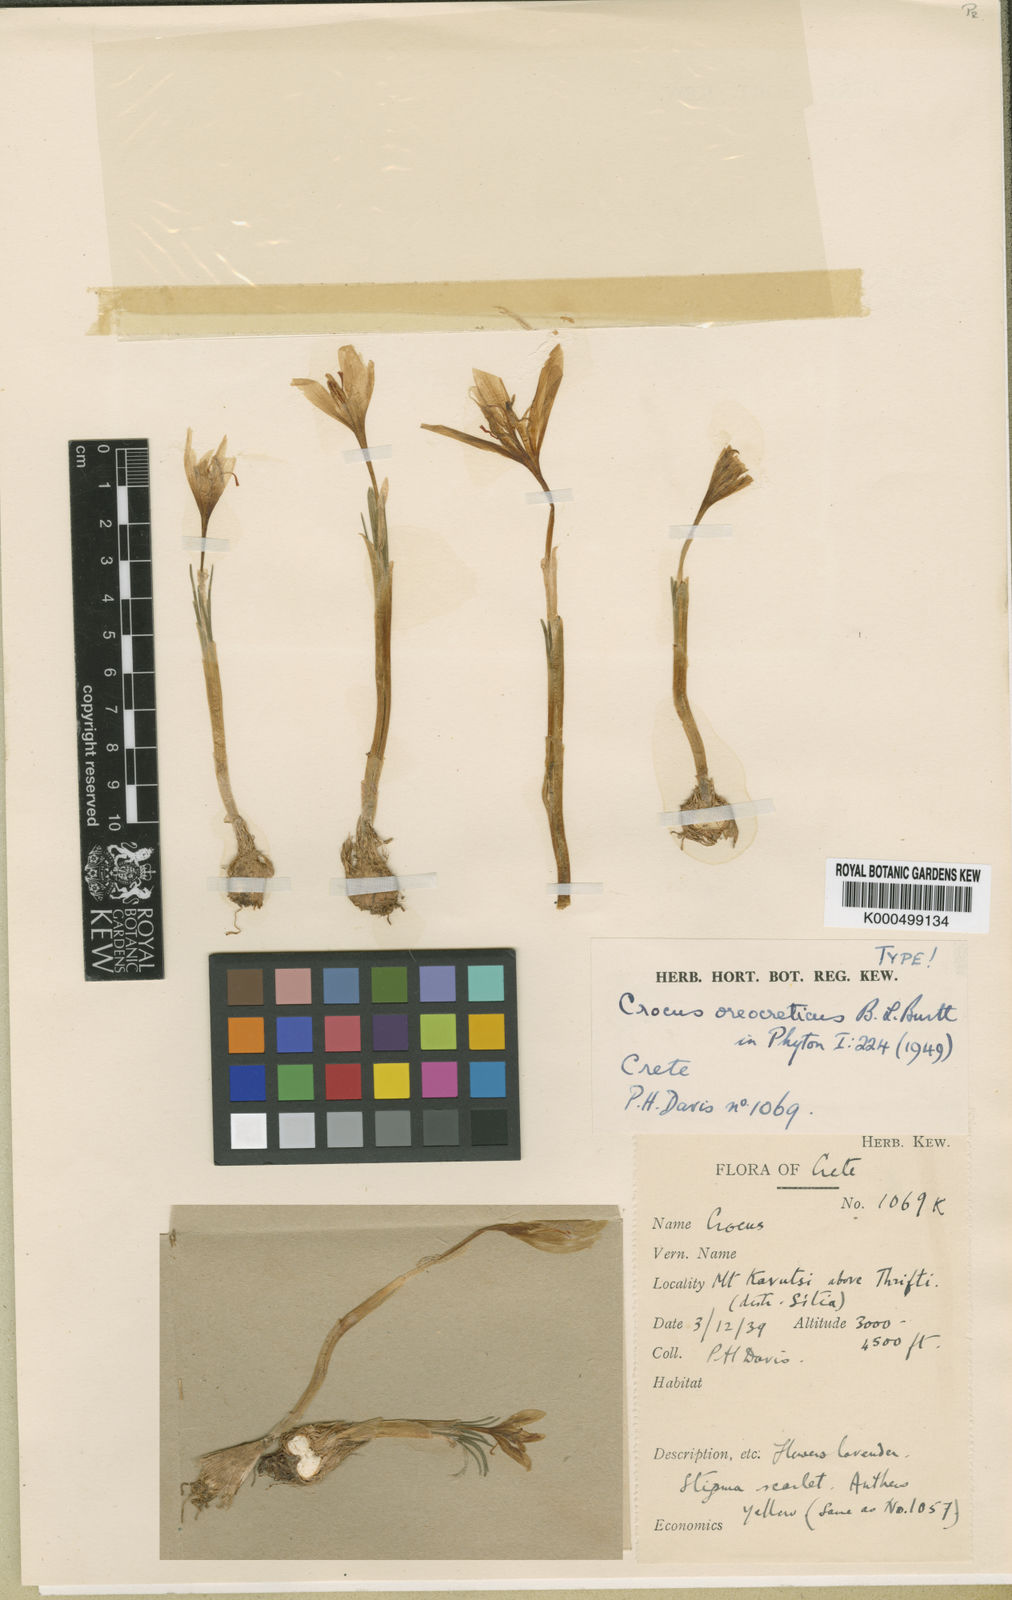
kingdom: Plantae
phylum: Tracheophyta
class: Liliopsida
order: Asparagales
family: Iridaceae
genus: Crocus
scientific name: Crocus oreocreticus
